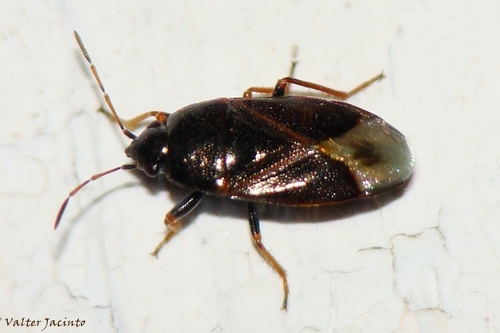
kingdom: Animalia
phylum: Arthropoda
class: Insecta
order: Hemiptera
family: Rhyparochromidae
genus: Lamprodema
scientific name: Lamprodema maura
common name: Seed bug
